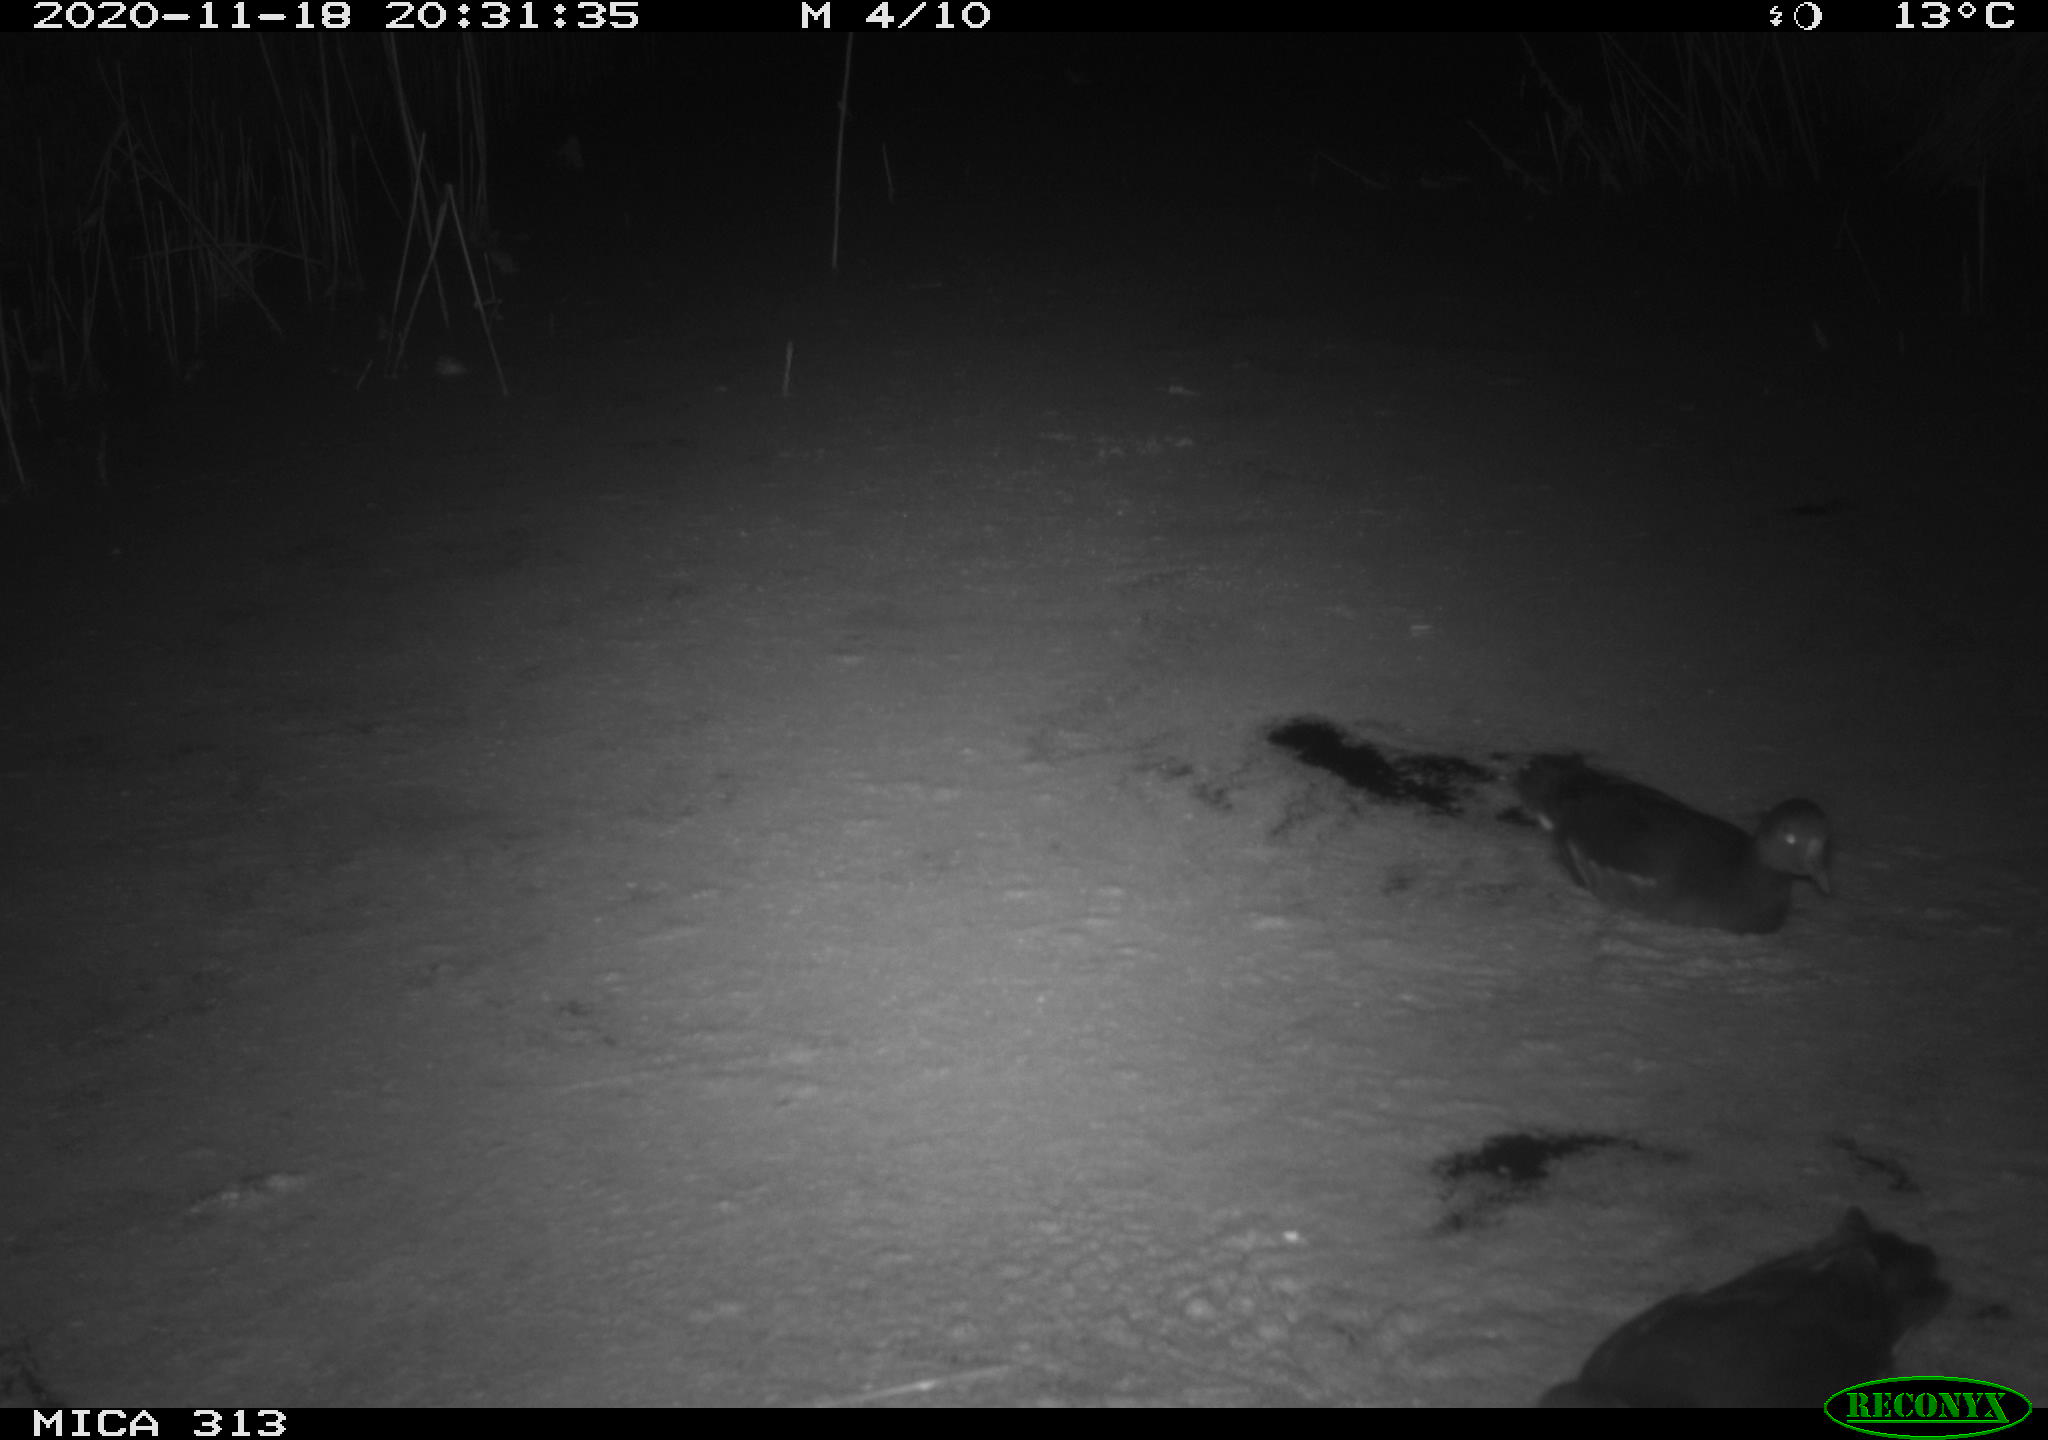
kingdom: Animalia
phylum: Chordata
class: Aves
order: Gruiformes
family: Rallidae
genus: Gallinula
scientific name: Gallinula chloropus
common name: Common moorhen
